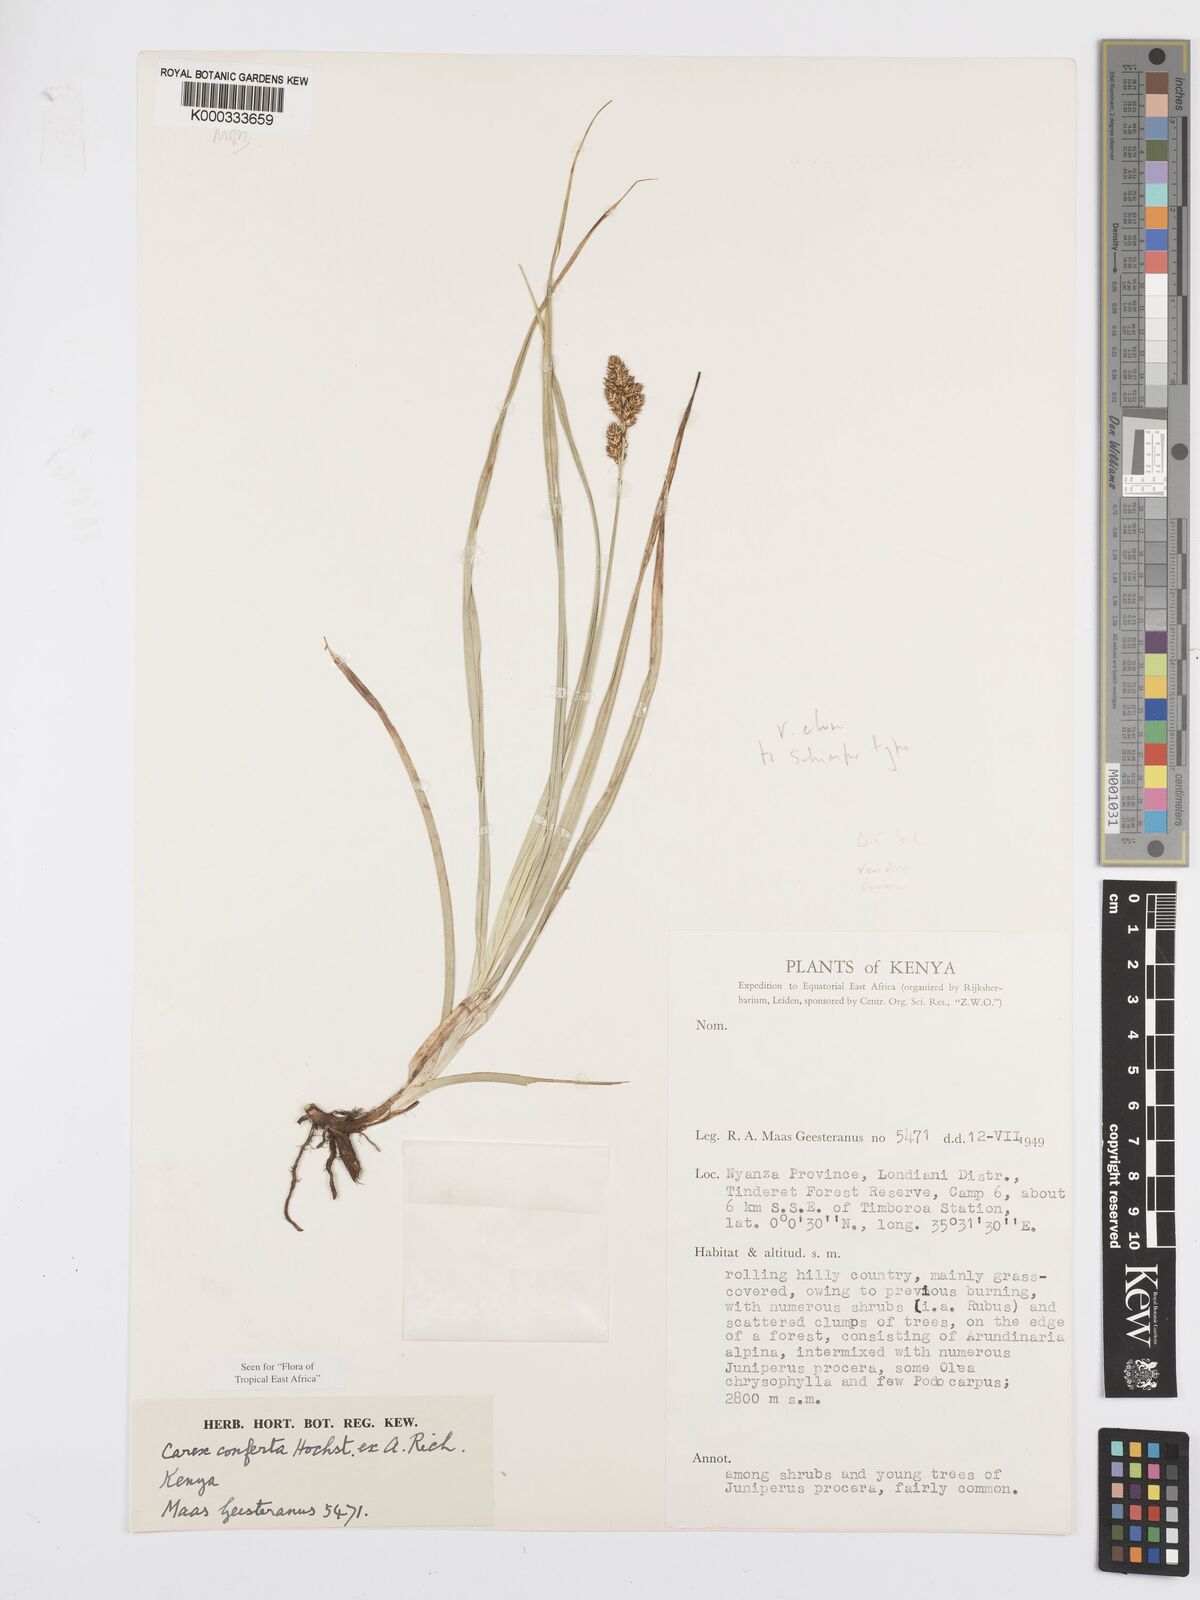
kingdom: Plantae
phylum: Tracheophyta
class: Liliopsida
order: Poales
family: Cyperaceae
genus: Carex
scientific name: Carex conferta
